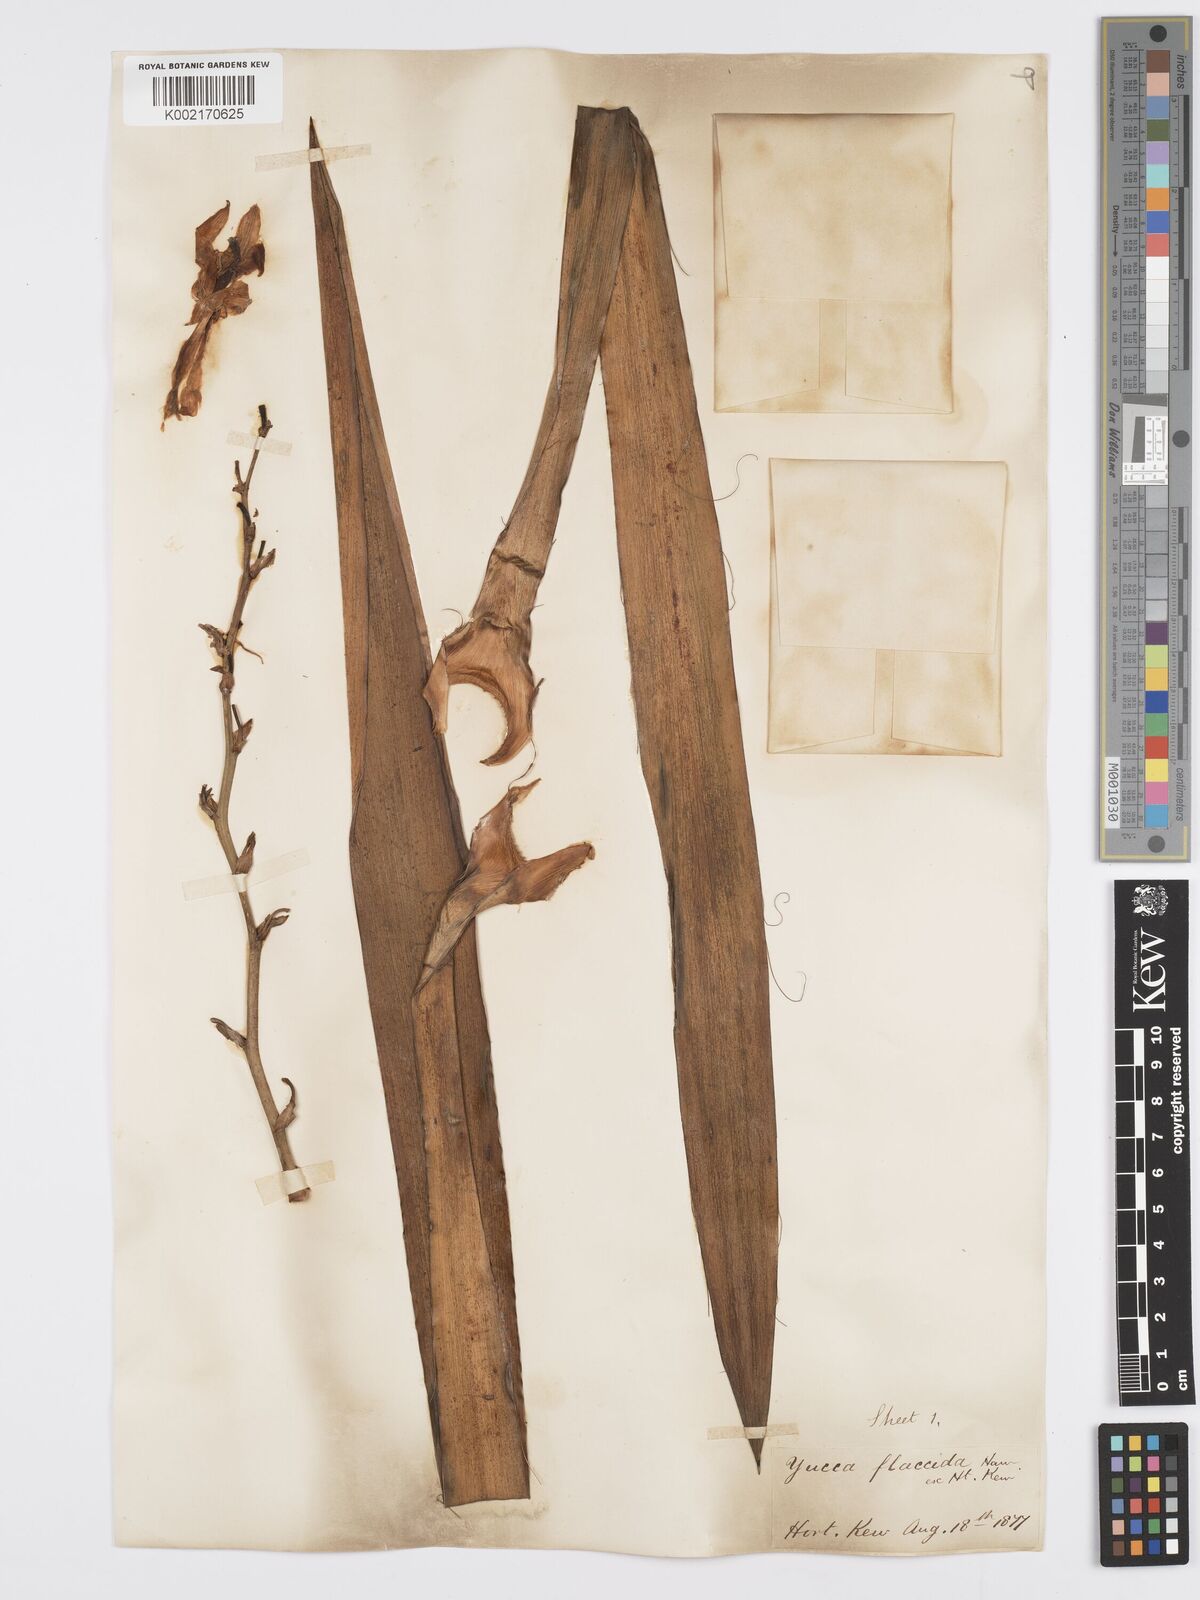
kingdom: Plantae
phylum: Tracheophyta
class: Liliopsida
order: Asparagales
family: Asparagaceae
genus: Yucca
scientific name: Yucca flaccida
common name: Adam's-needle
